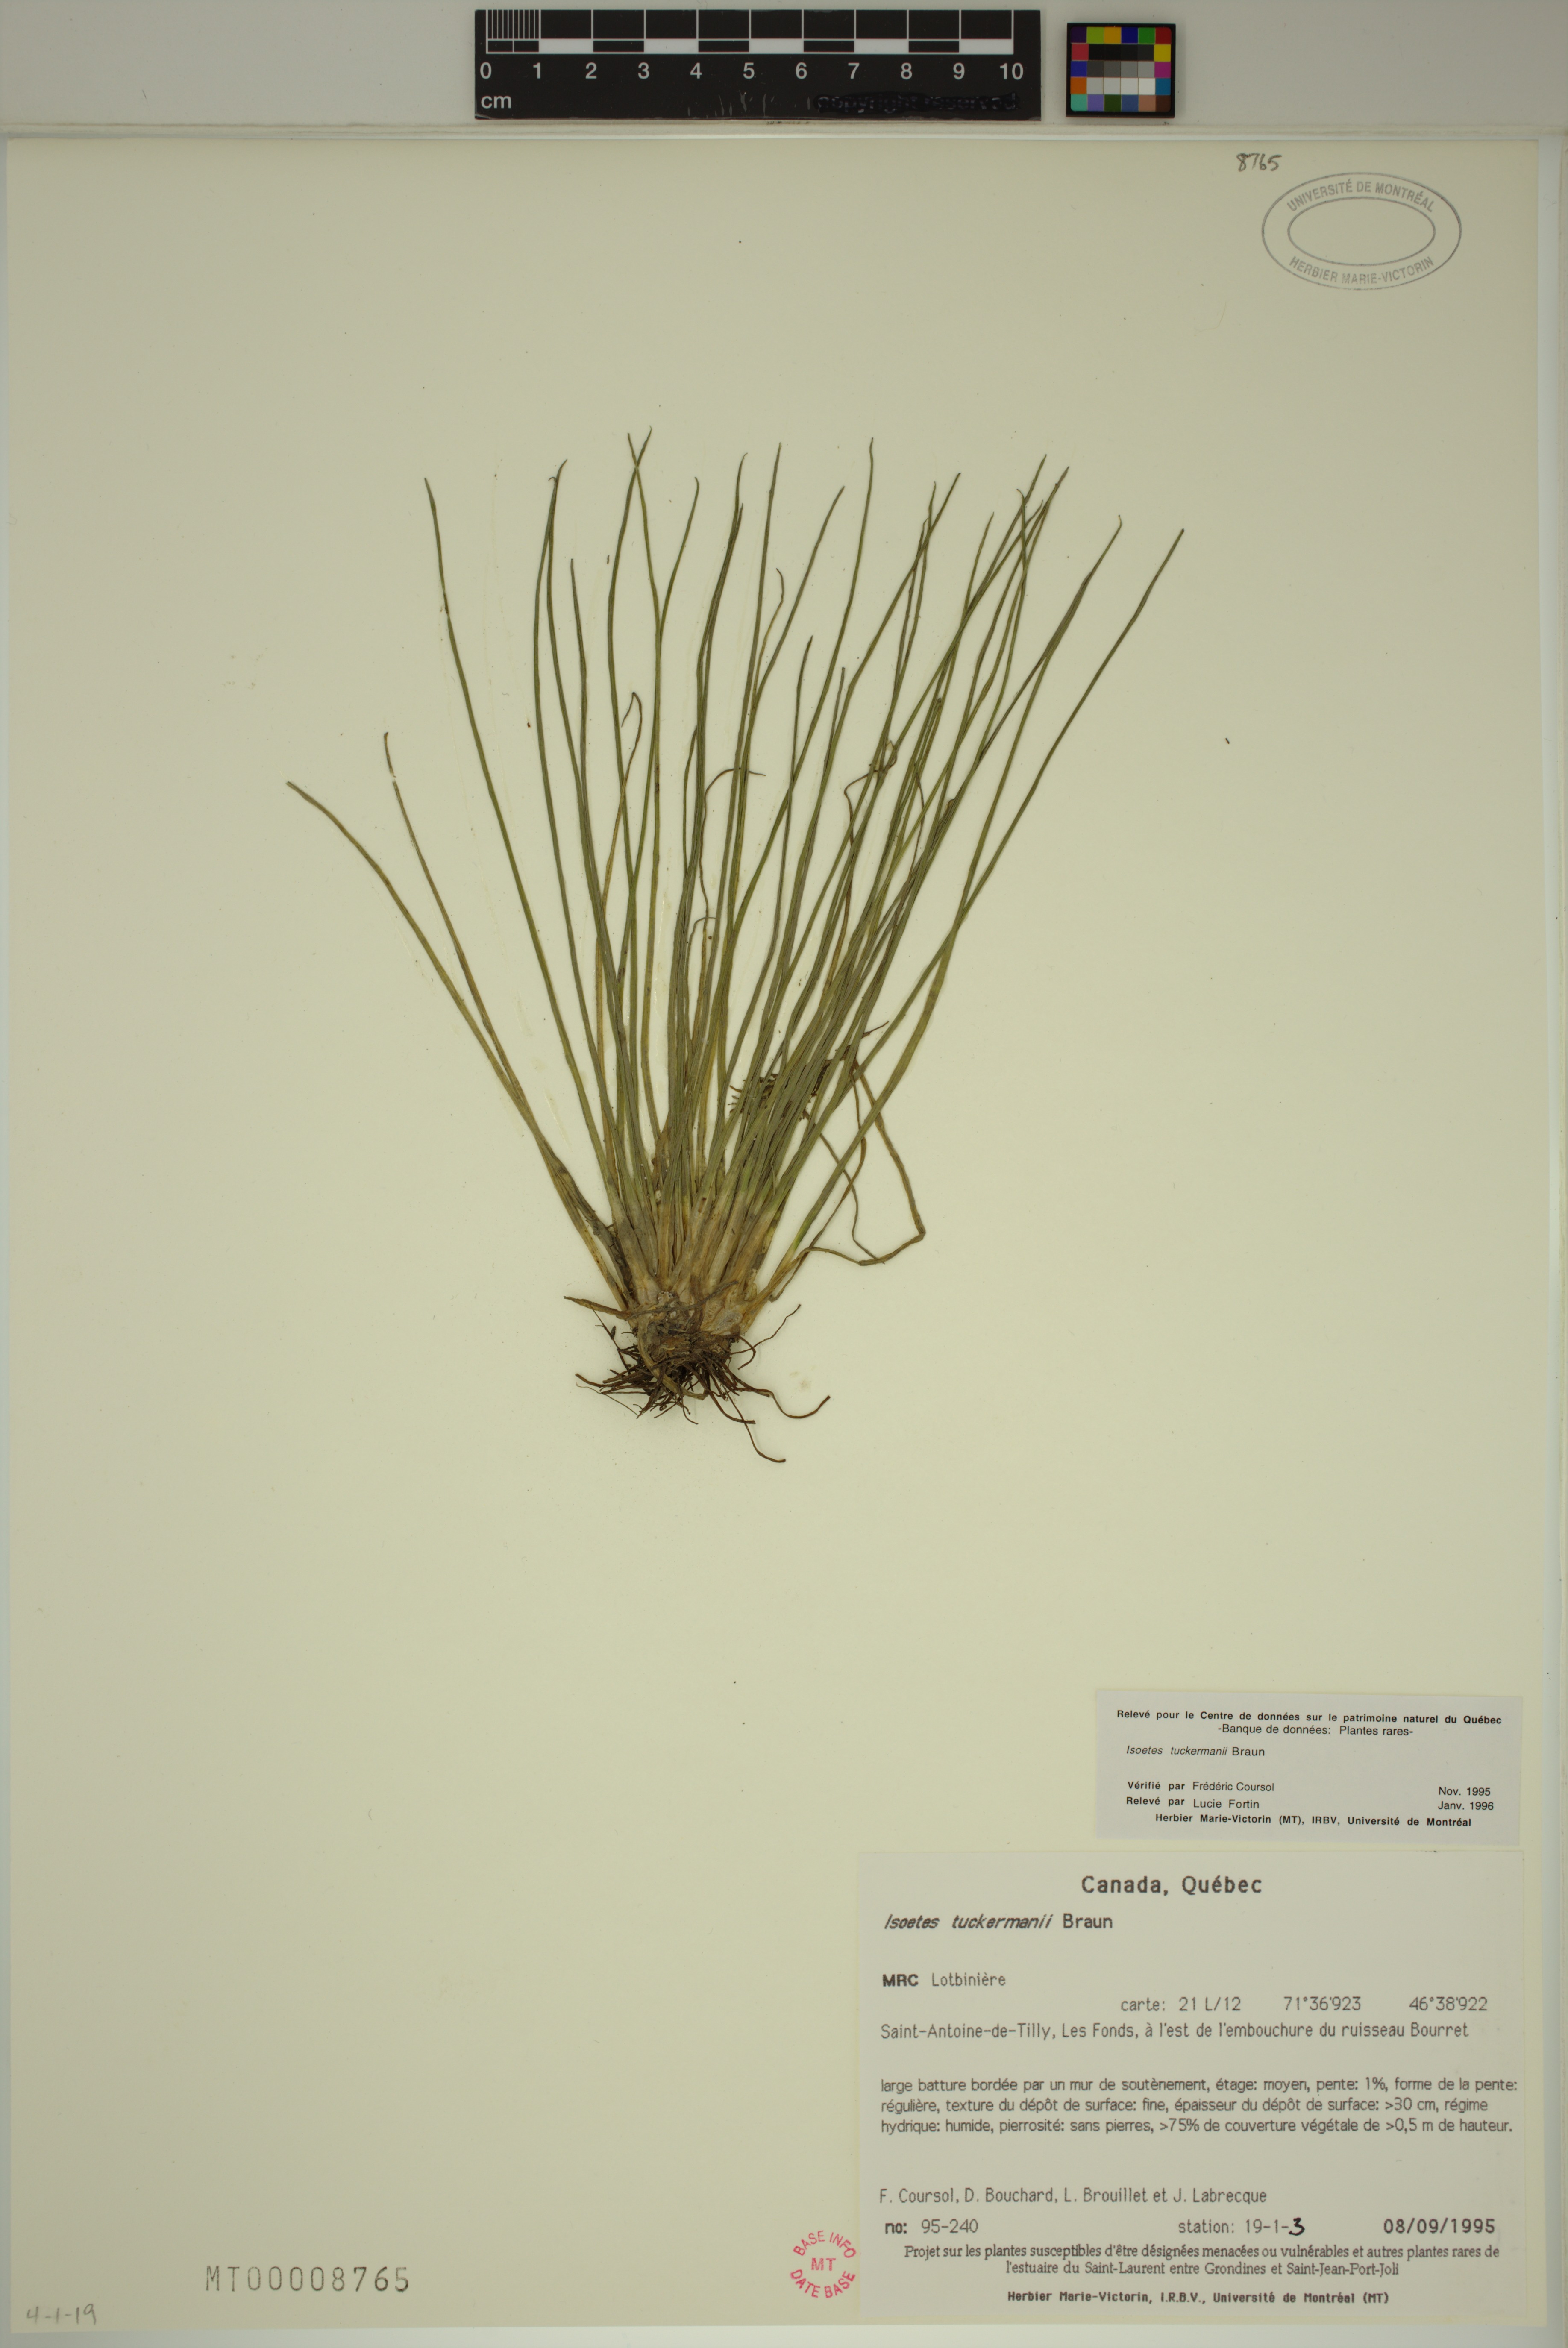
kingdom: Plantae
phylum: Tracheophyta
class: Lycopodiopsida
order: Isoetales
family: Isoetaceae
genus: Isoetes
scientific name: Isoetes laurentiana
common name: St. lawrence quillwort
